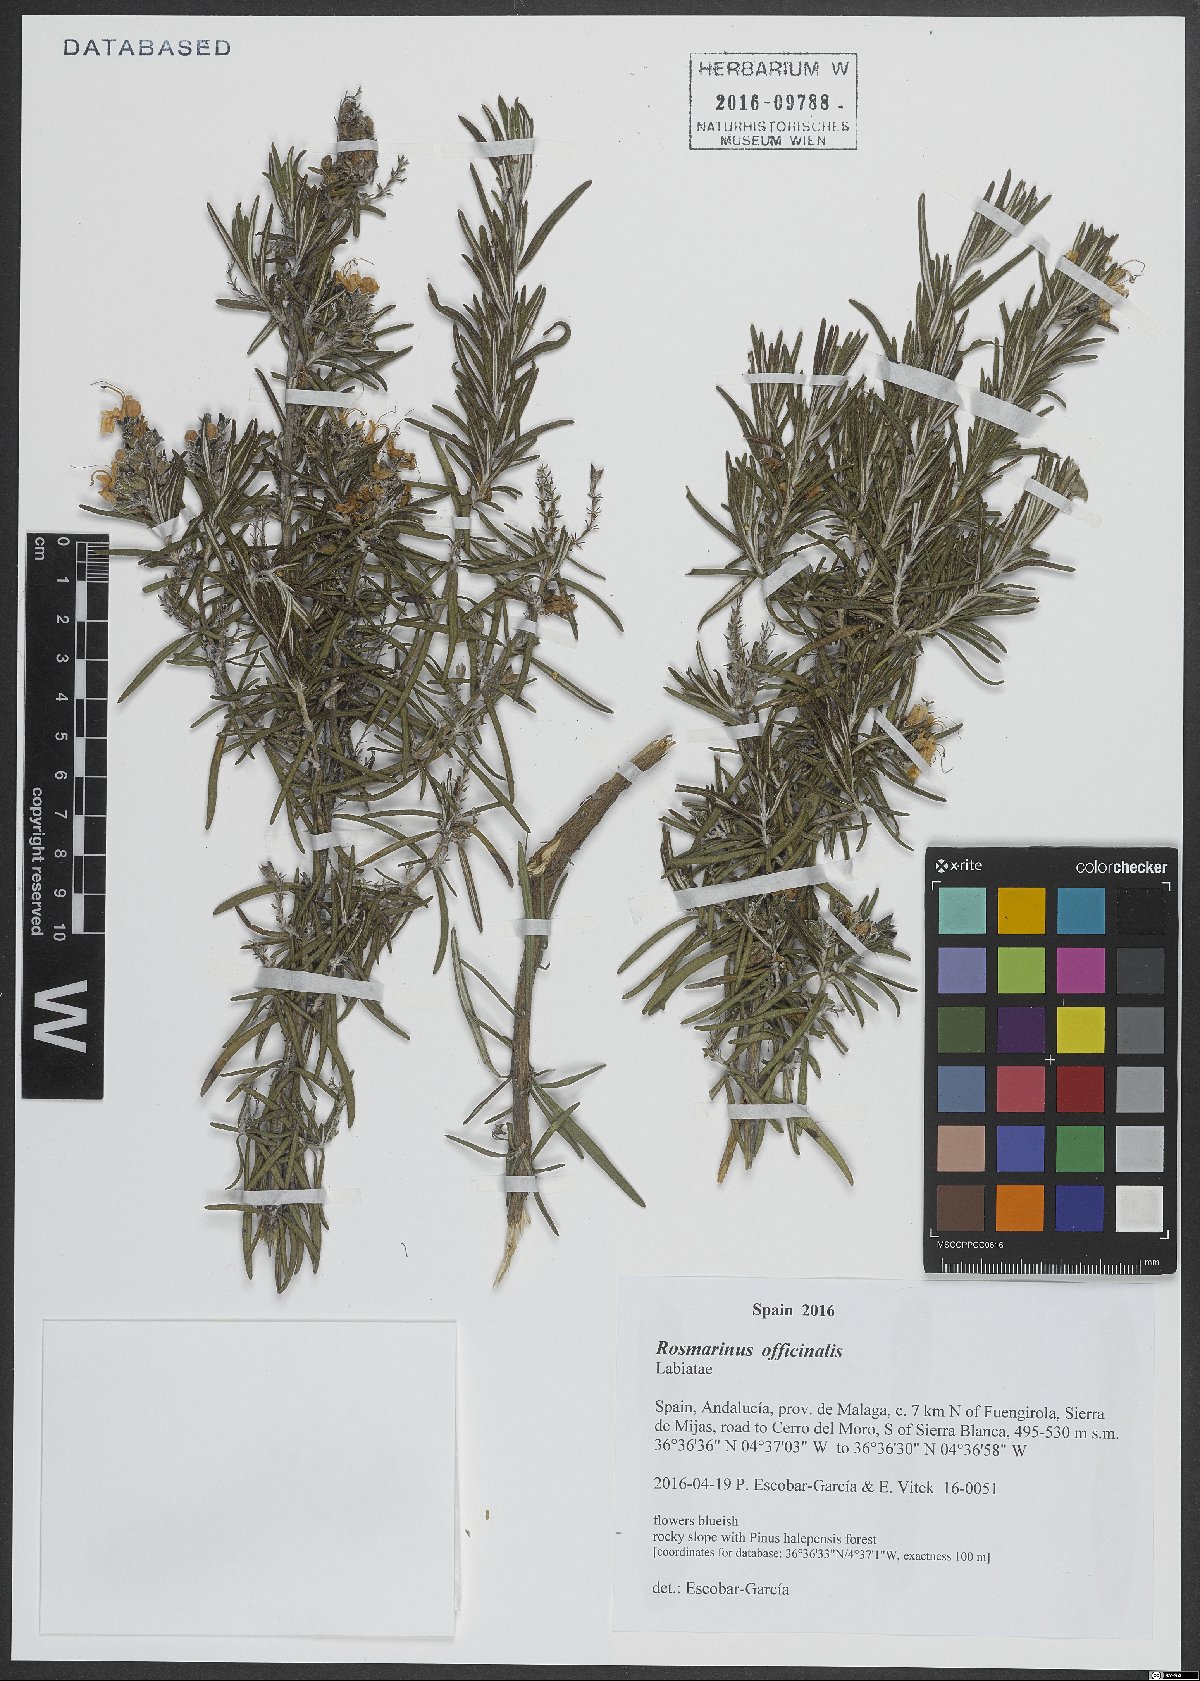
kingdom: Plantae
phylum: Tracheophyta
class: Magnoliopsida
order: Lamiales
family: Lamiaceae
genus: Salvia
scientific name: Salvia rosmarinus
